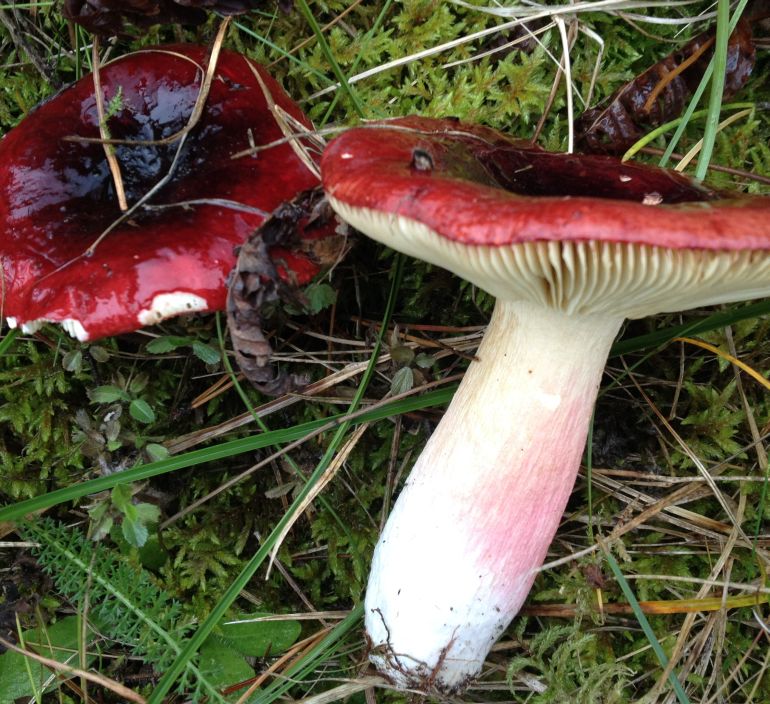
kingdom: Fungi
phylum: Basidiomycota
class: Agaricomycetes
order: Russulales
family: Russulaceae
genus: Russula
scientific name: Russula xerampelina
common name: hummer-skørhat
